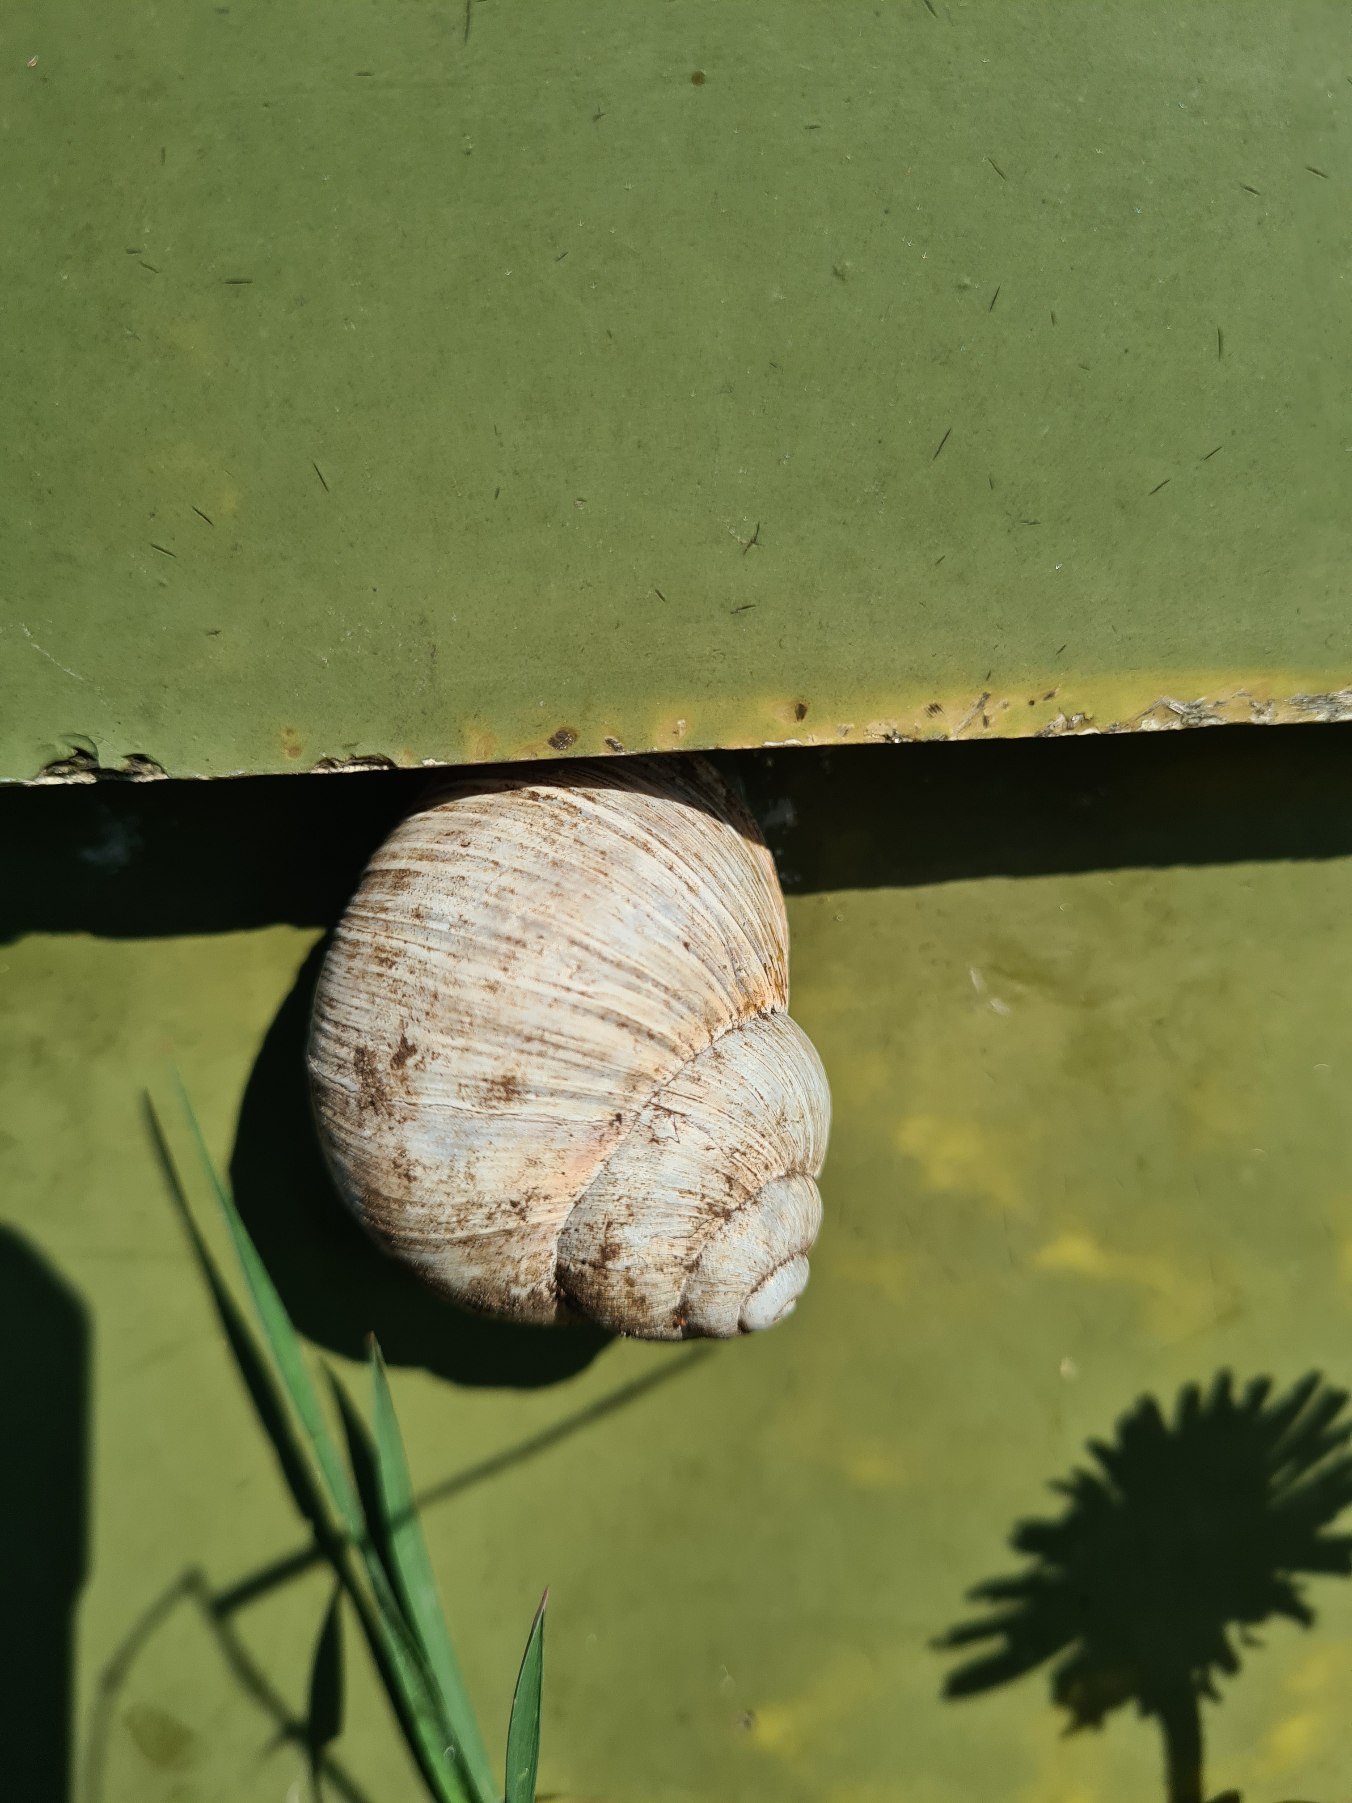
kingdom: Animalia
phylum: Mollusca
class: Gastropoda
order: Stylommatophora
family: Helicidae
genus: Helix
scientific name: Helix pomatia
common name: Vinbjergsnegl
